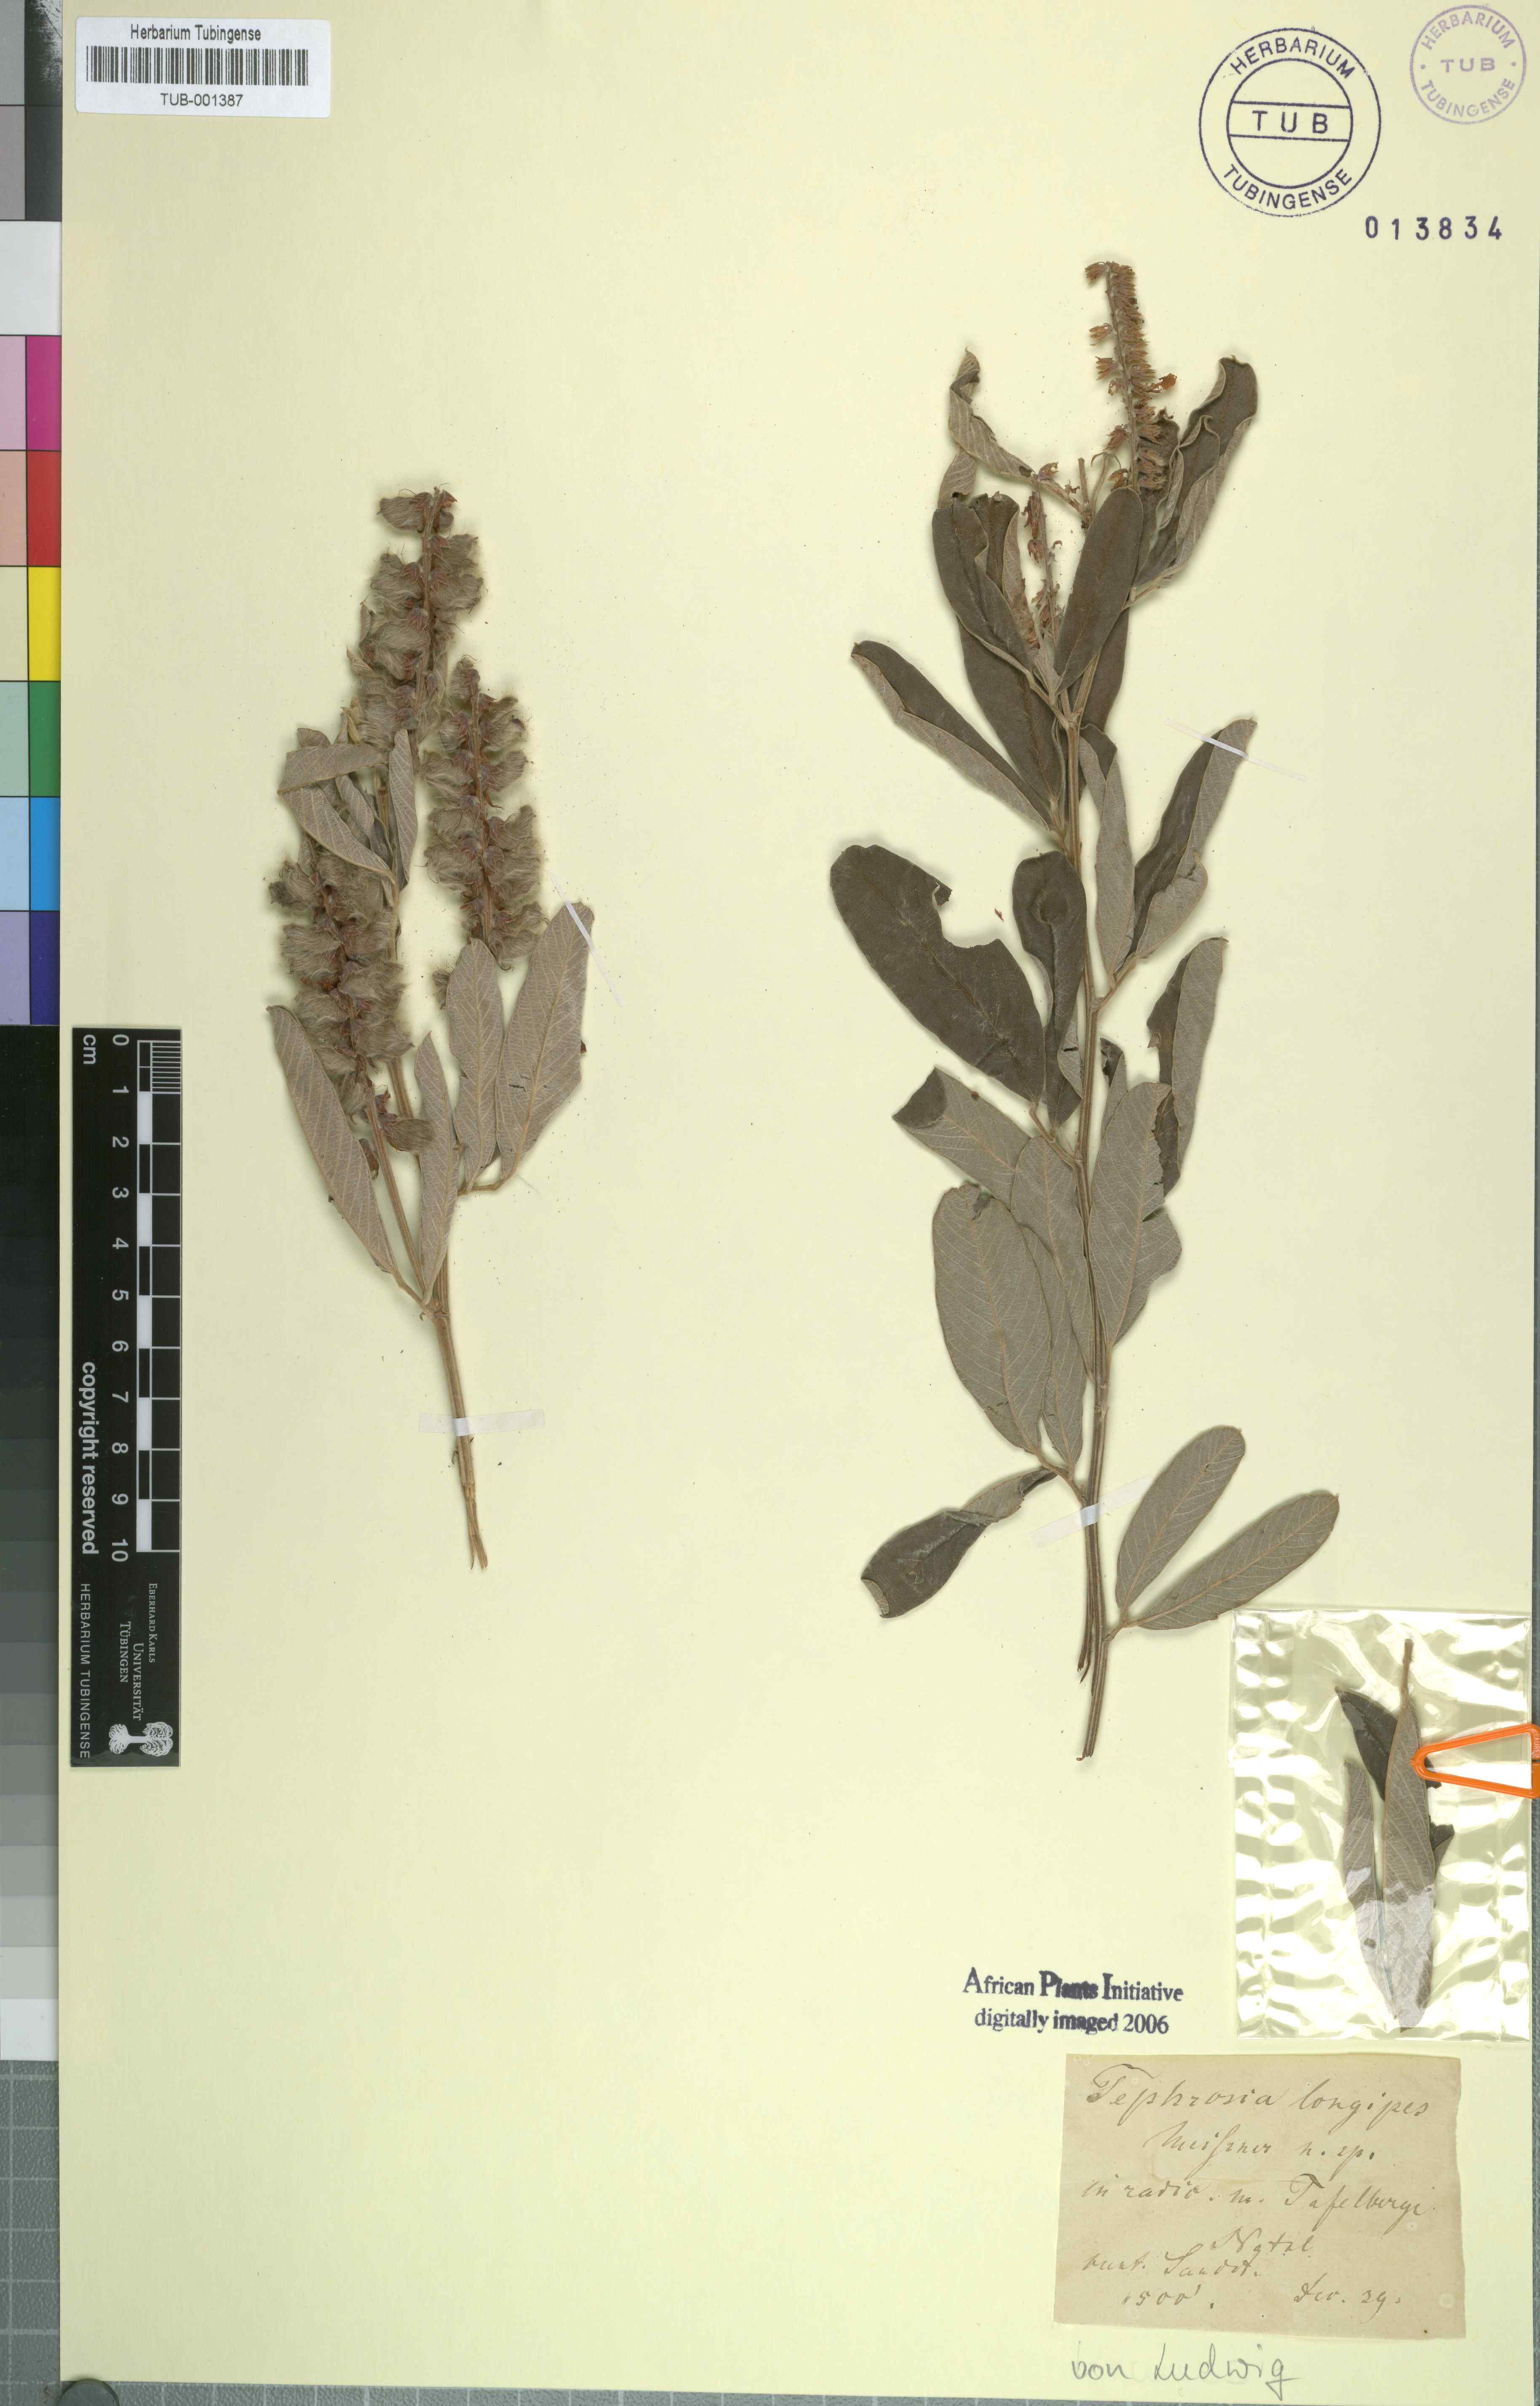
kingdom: Plantae
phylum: Tracheophyta
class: Magnoliopsida
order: Fabales
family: Fabaceae
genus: Tephrosia
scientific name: Tephrosia longipes
